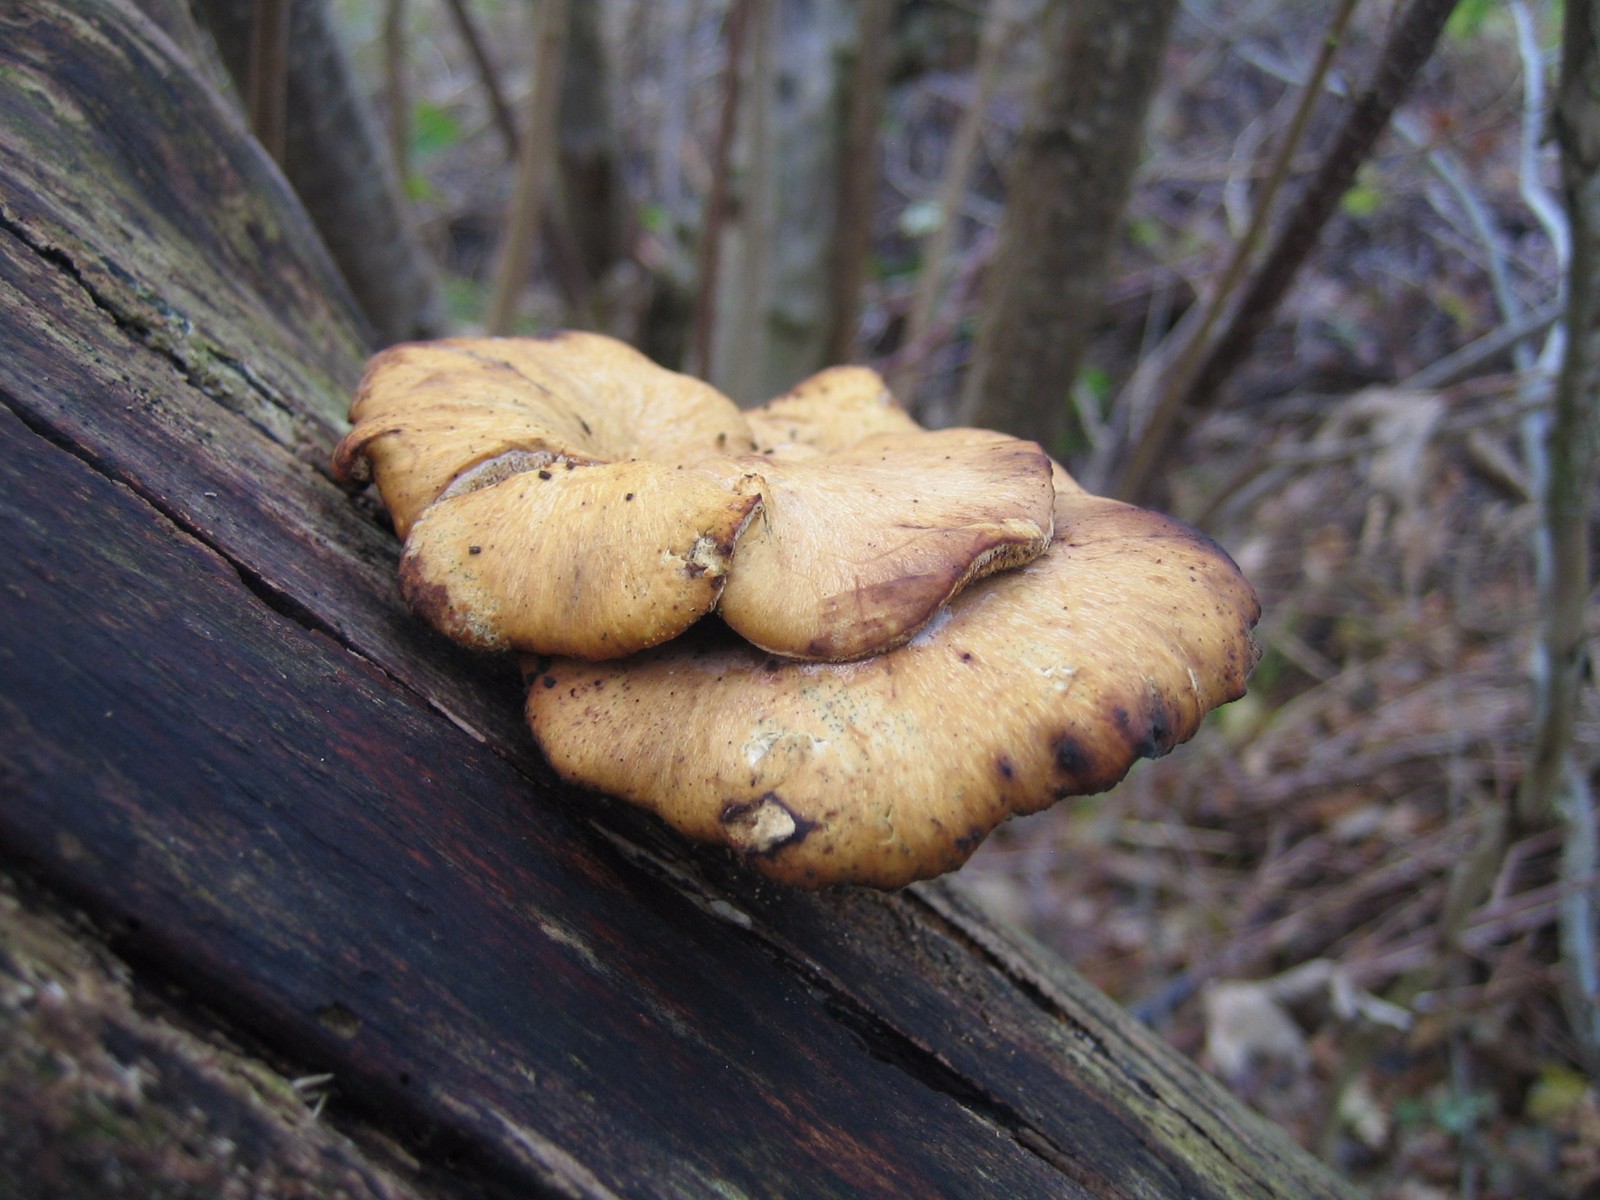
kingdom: Fungi
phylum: Basidiomycota
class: Agaricomycetes
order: Polyporales
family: Polyporaceae
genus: Cerioporus
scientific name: Cerioporus varius
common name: foranderlig stilkporesvamp
